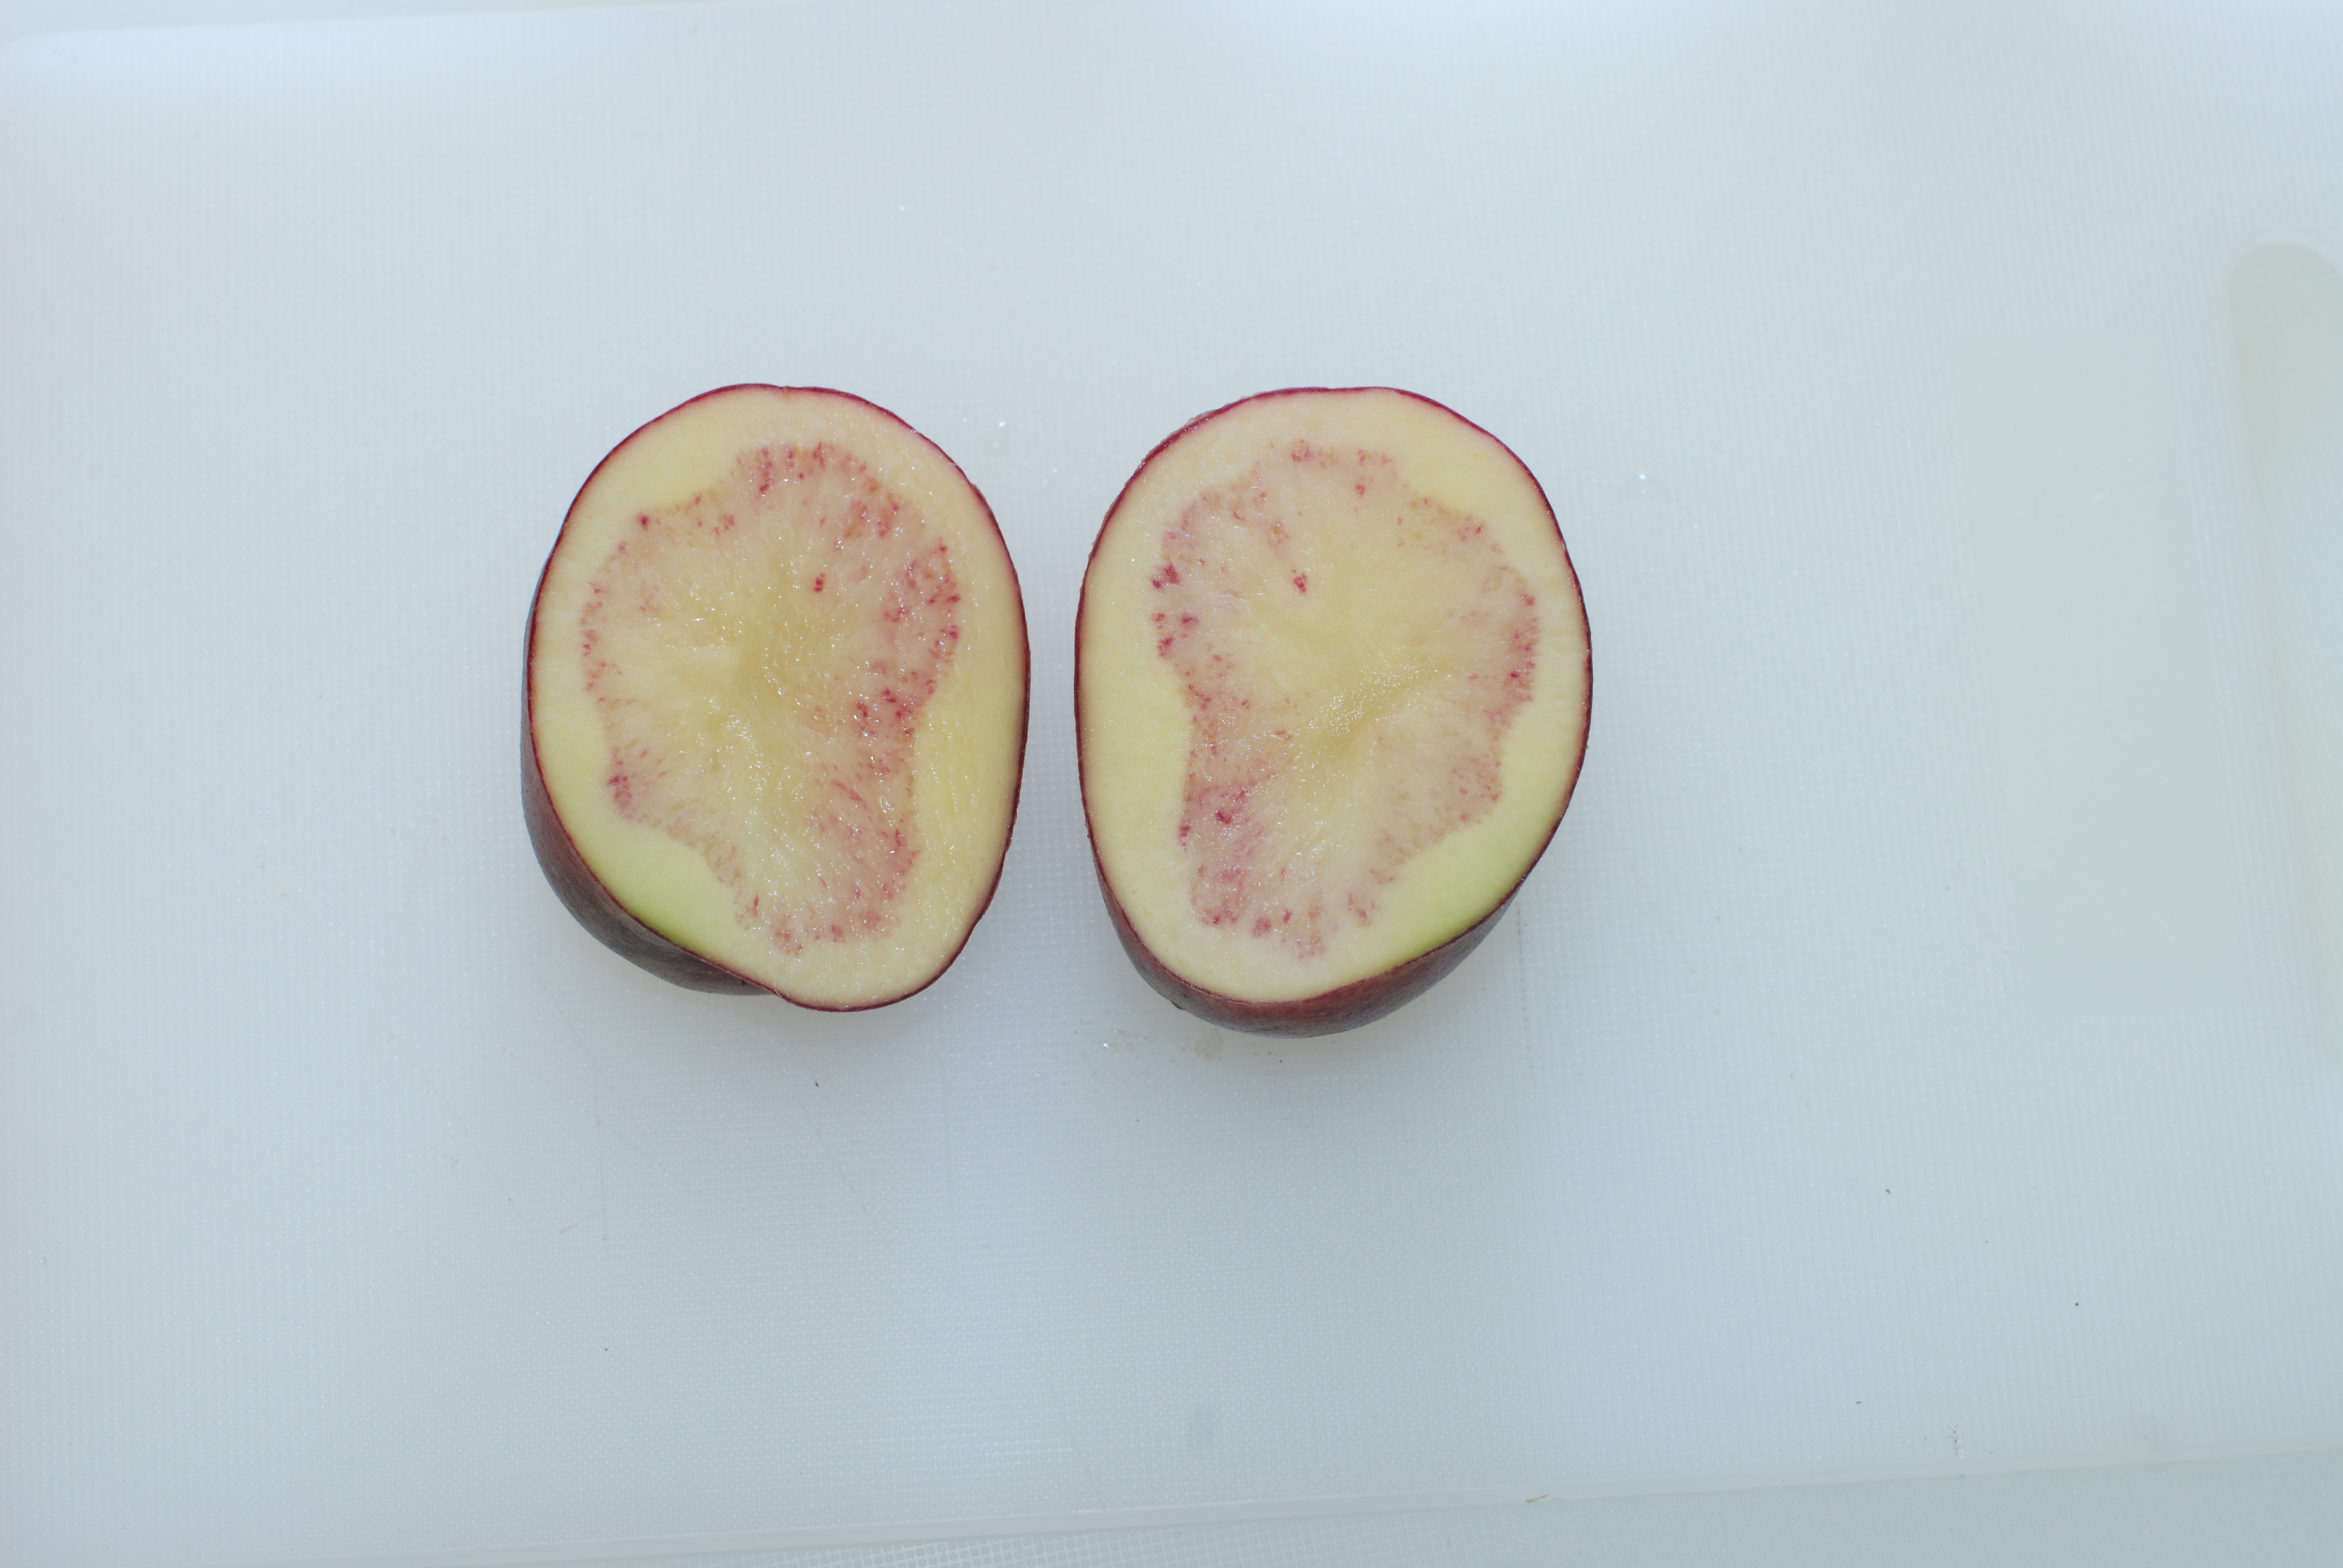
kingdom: Plantae
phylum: Tracheophyta
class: Magnoliopsida
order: Solanales
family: Solanaceae
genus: Solanum
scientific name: Solanum tuberosum
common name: Potato
